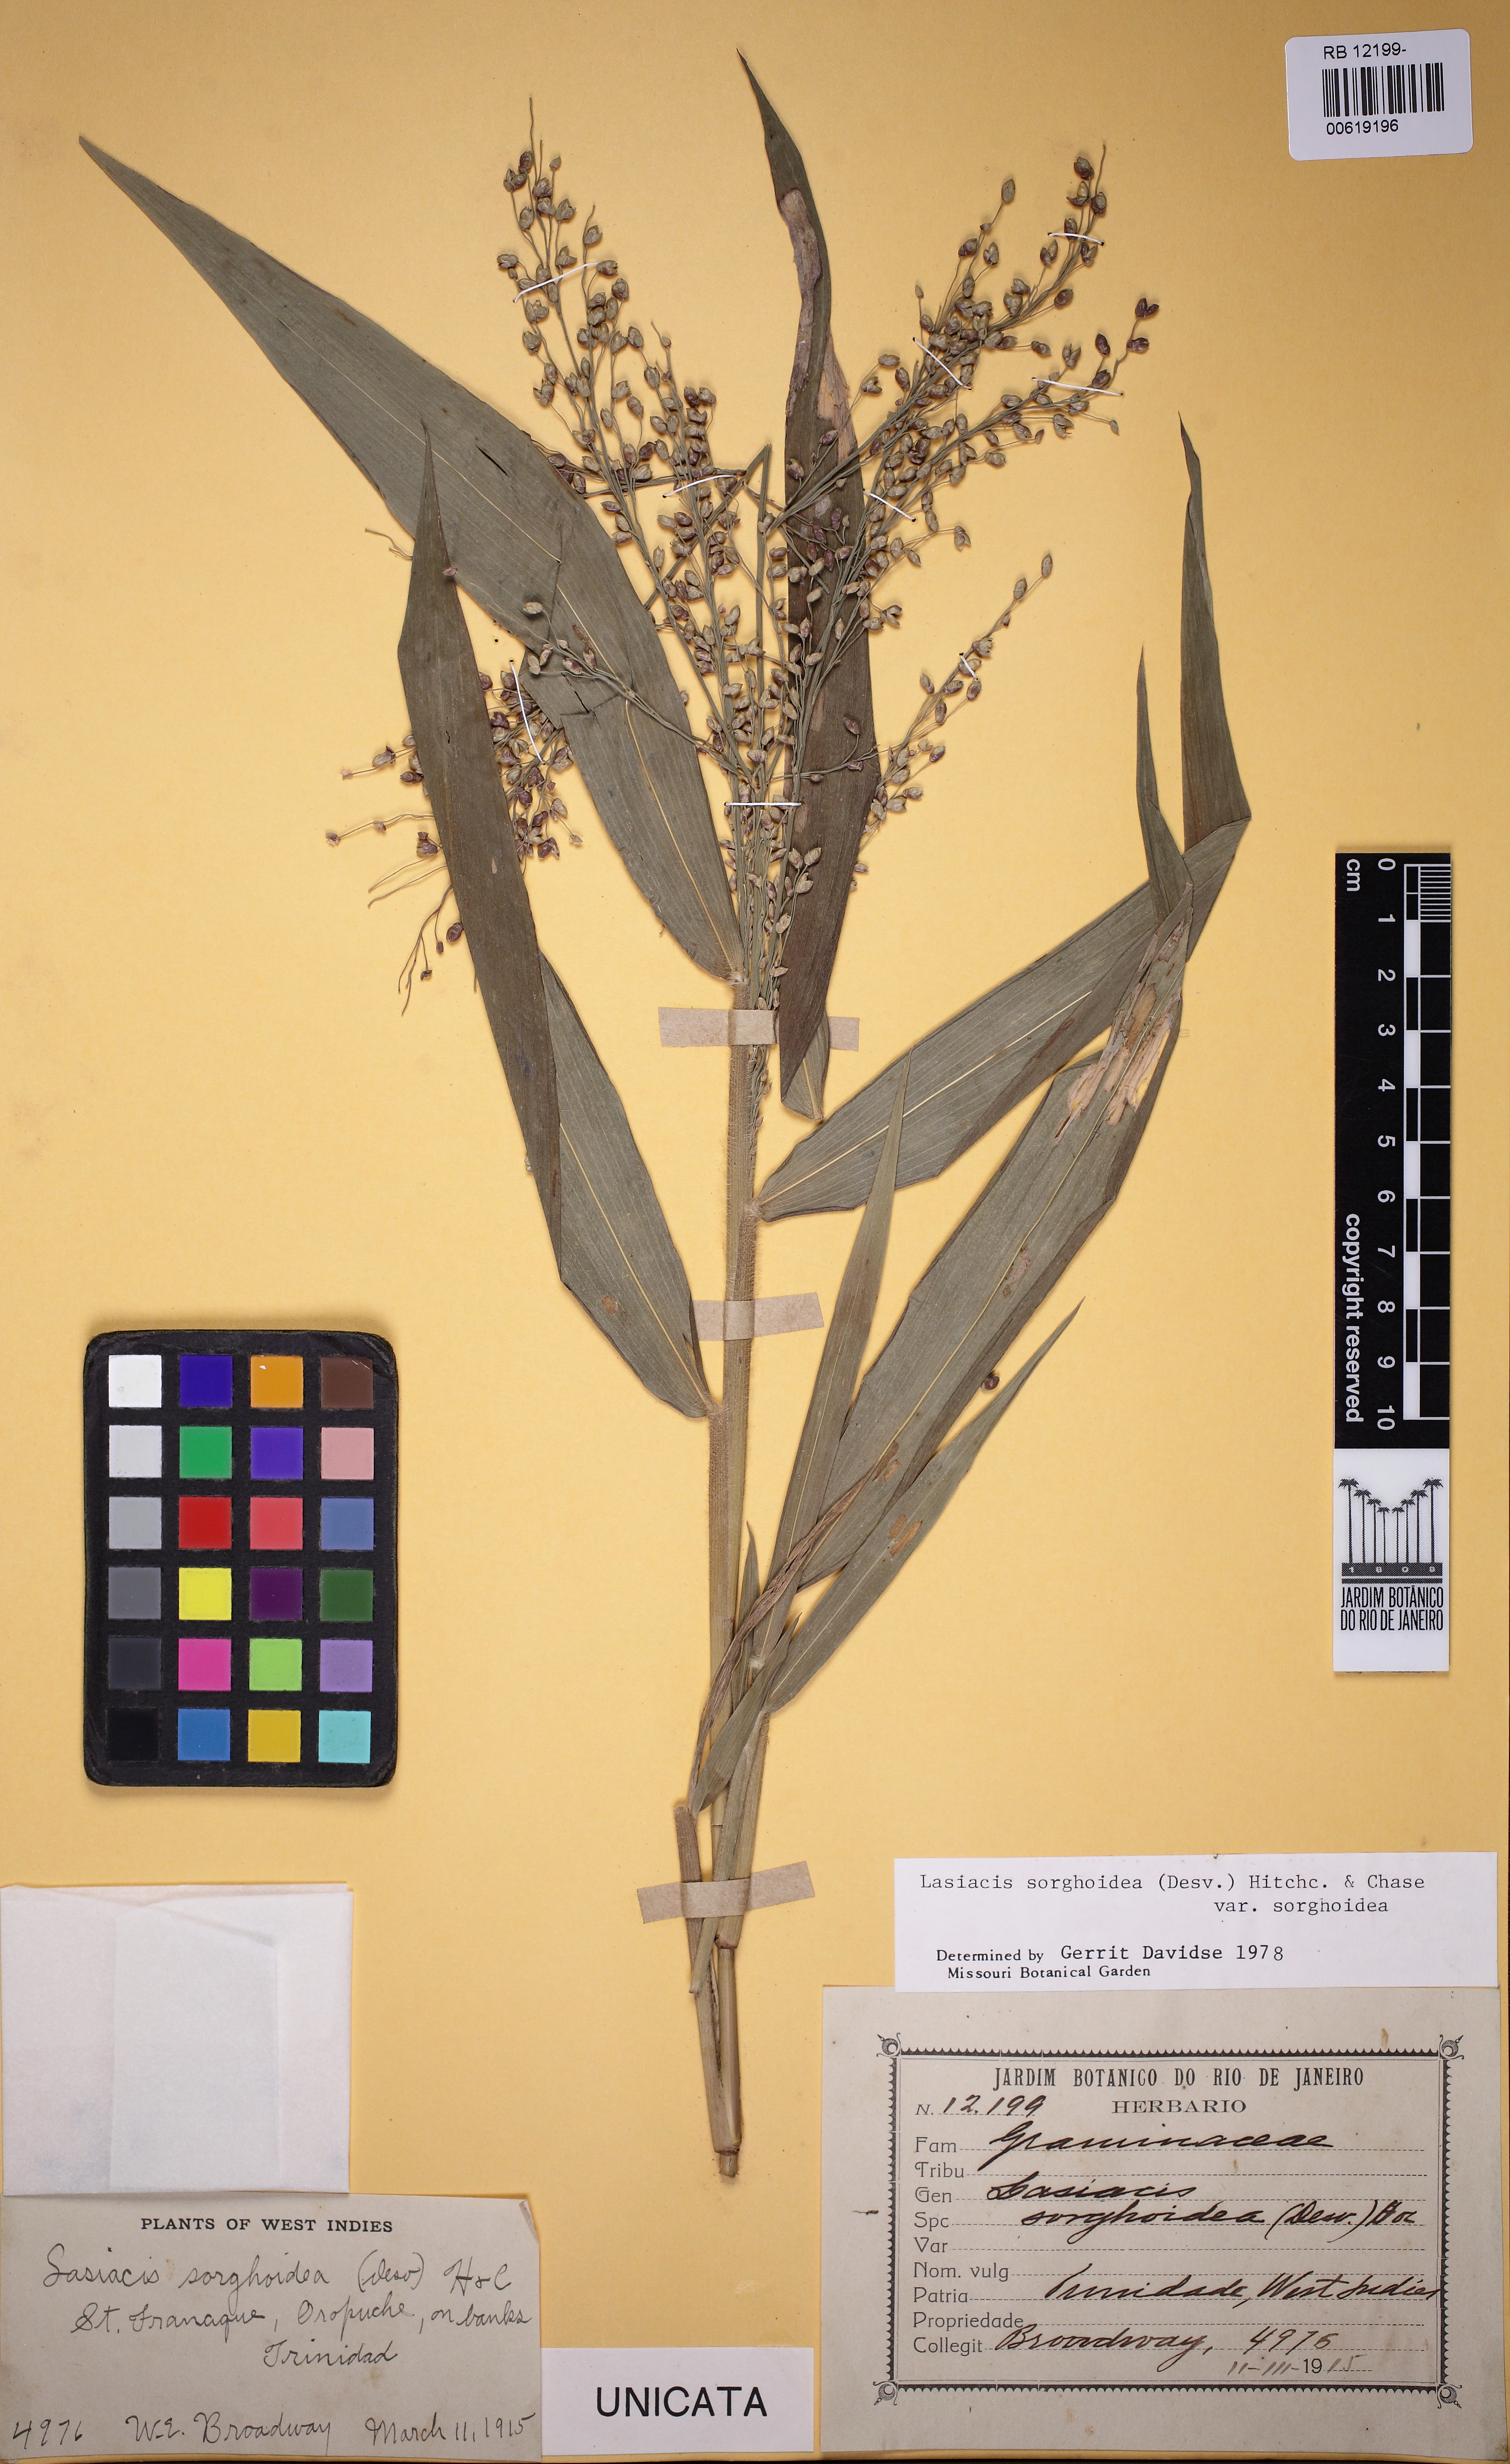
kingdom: Plantae
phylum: Tracheophyta
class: Liliopsida
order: Poales
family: Poaceae
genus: Lasiacis
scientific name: Lasiacis maculata
